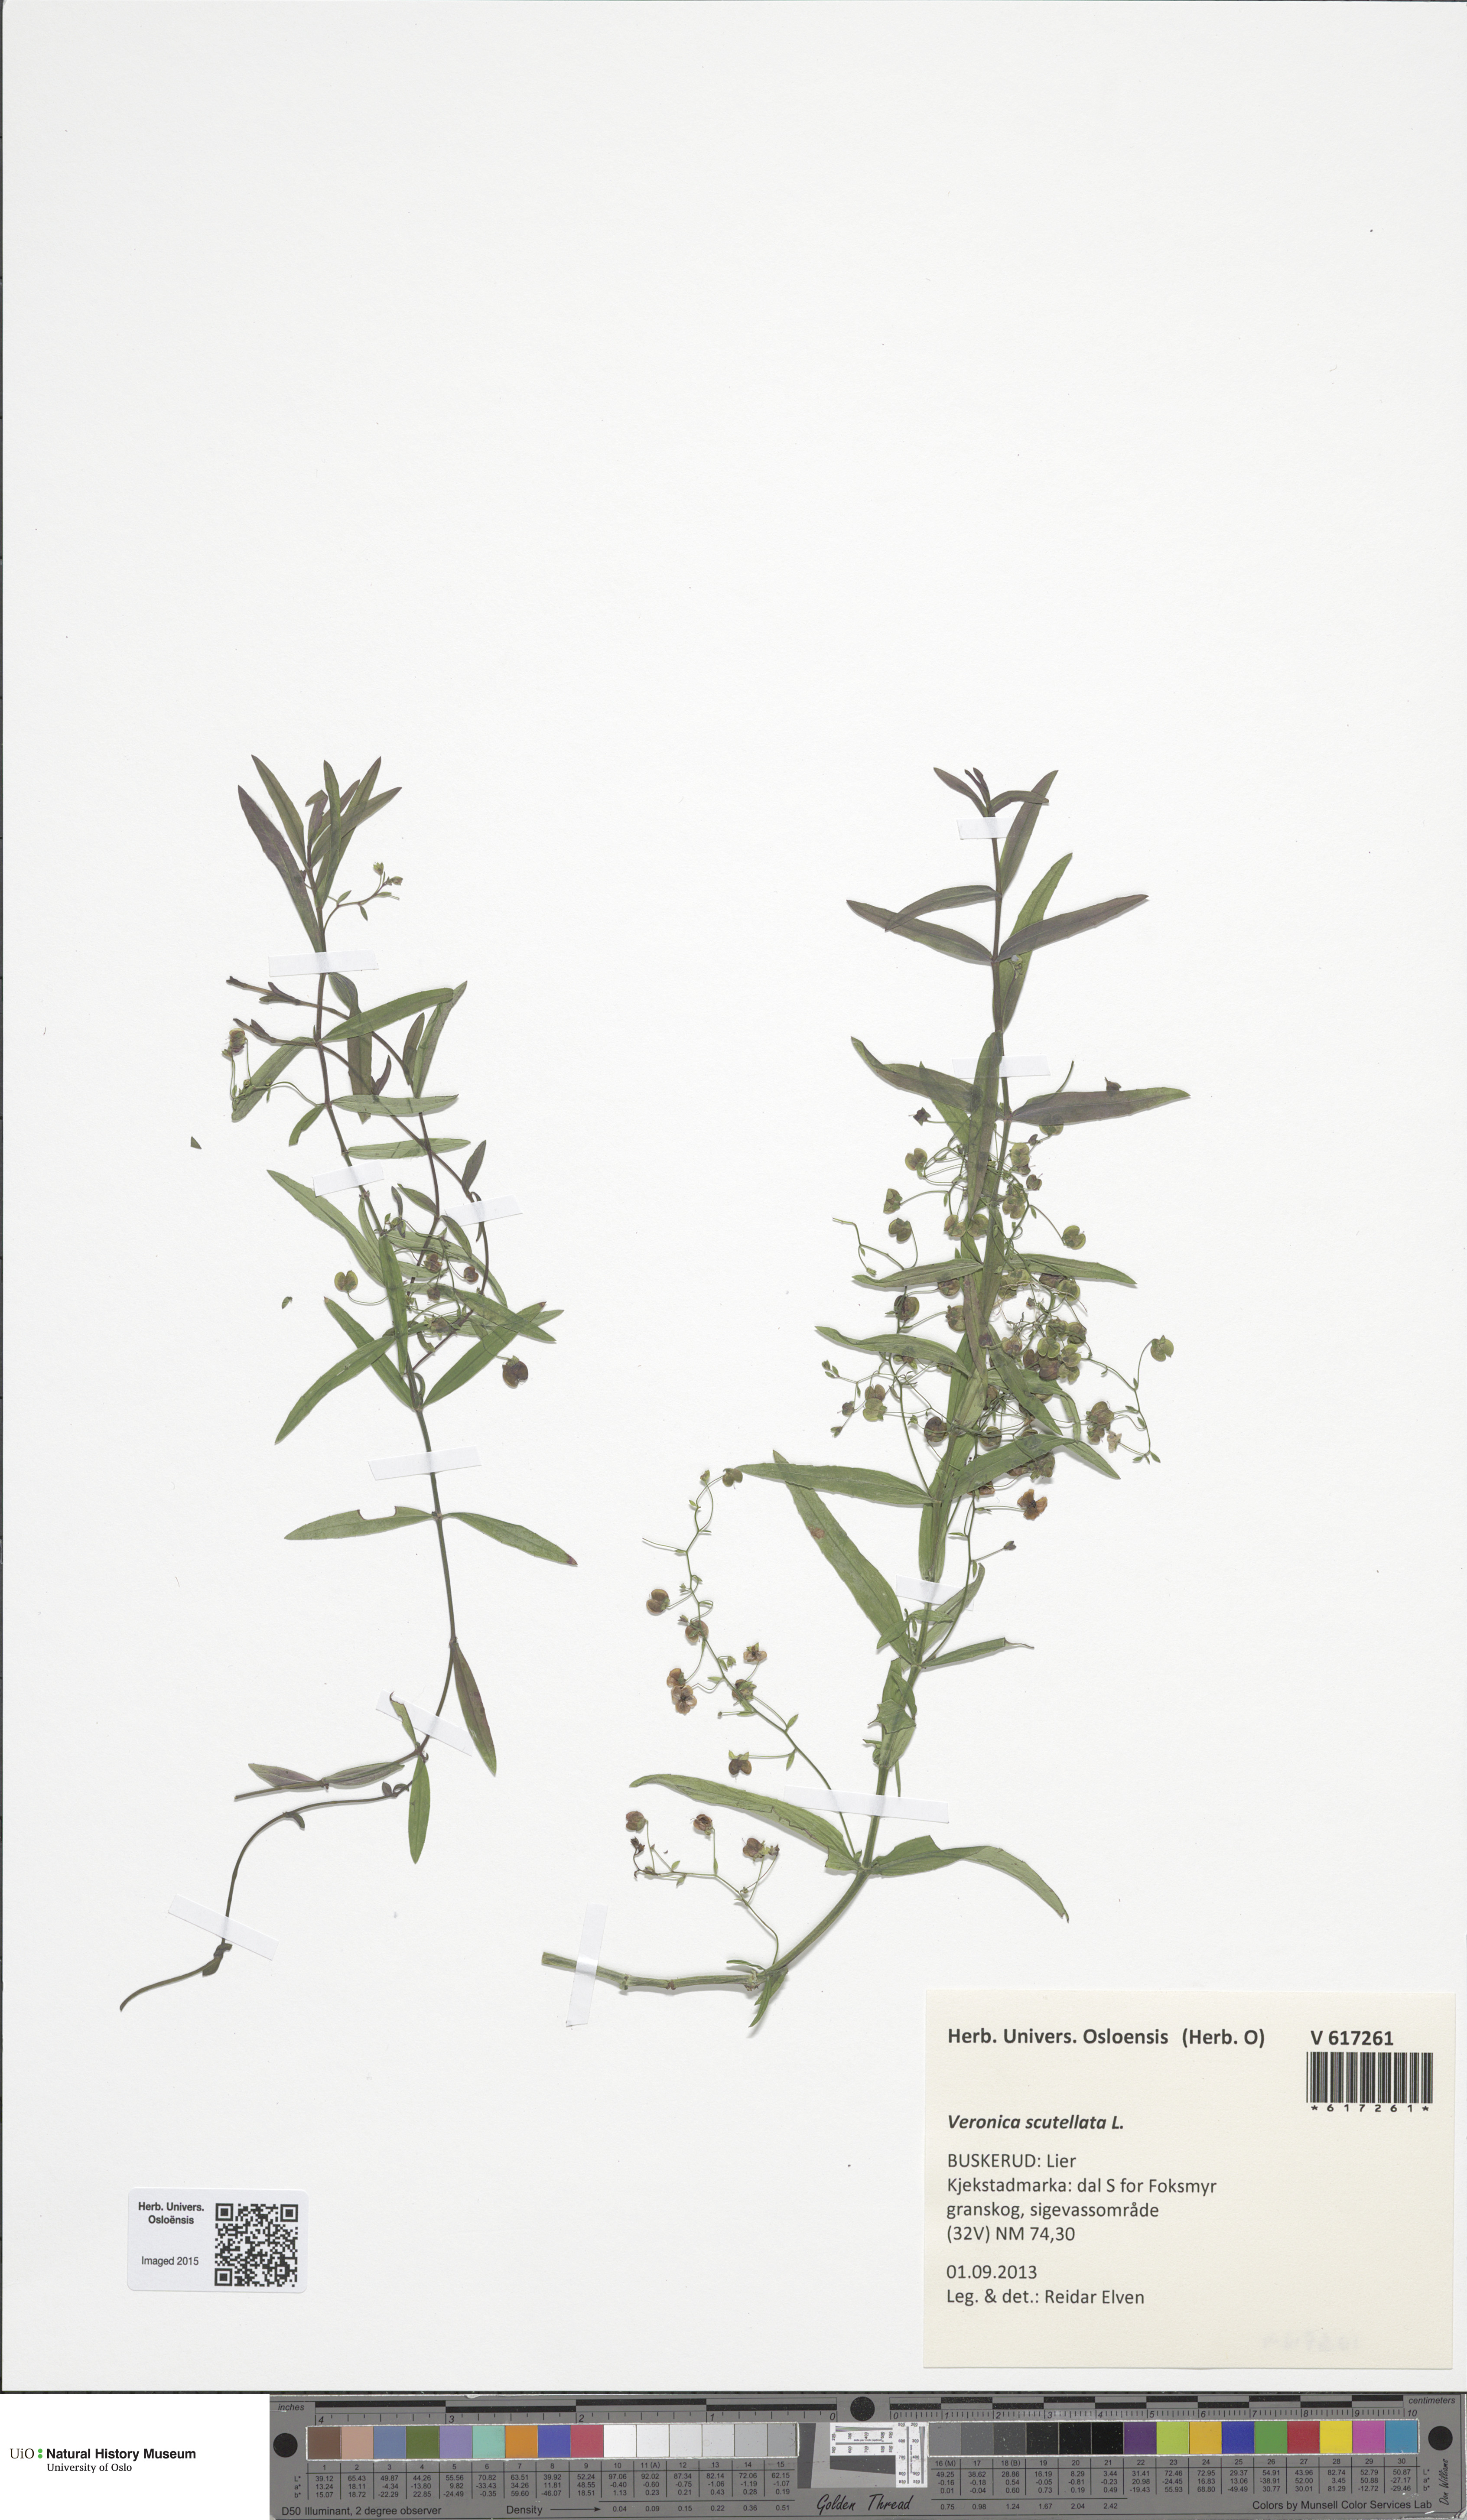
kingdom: Plantae
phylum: Tracheophyta
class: Magnoliopsida
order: Lamiales
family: Plantaginaceae
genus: Veronica
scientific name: Veronica scutellata
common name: Marsh speedwell
